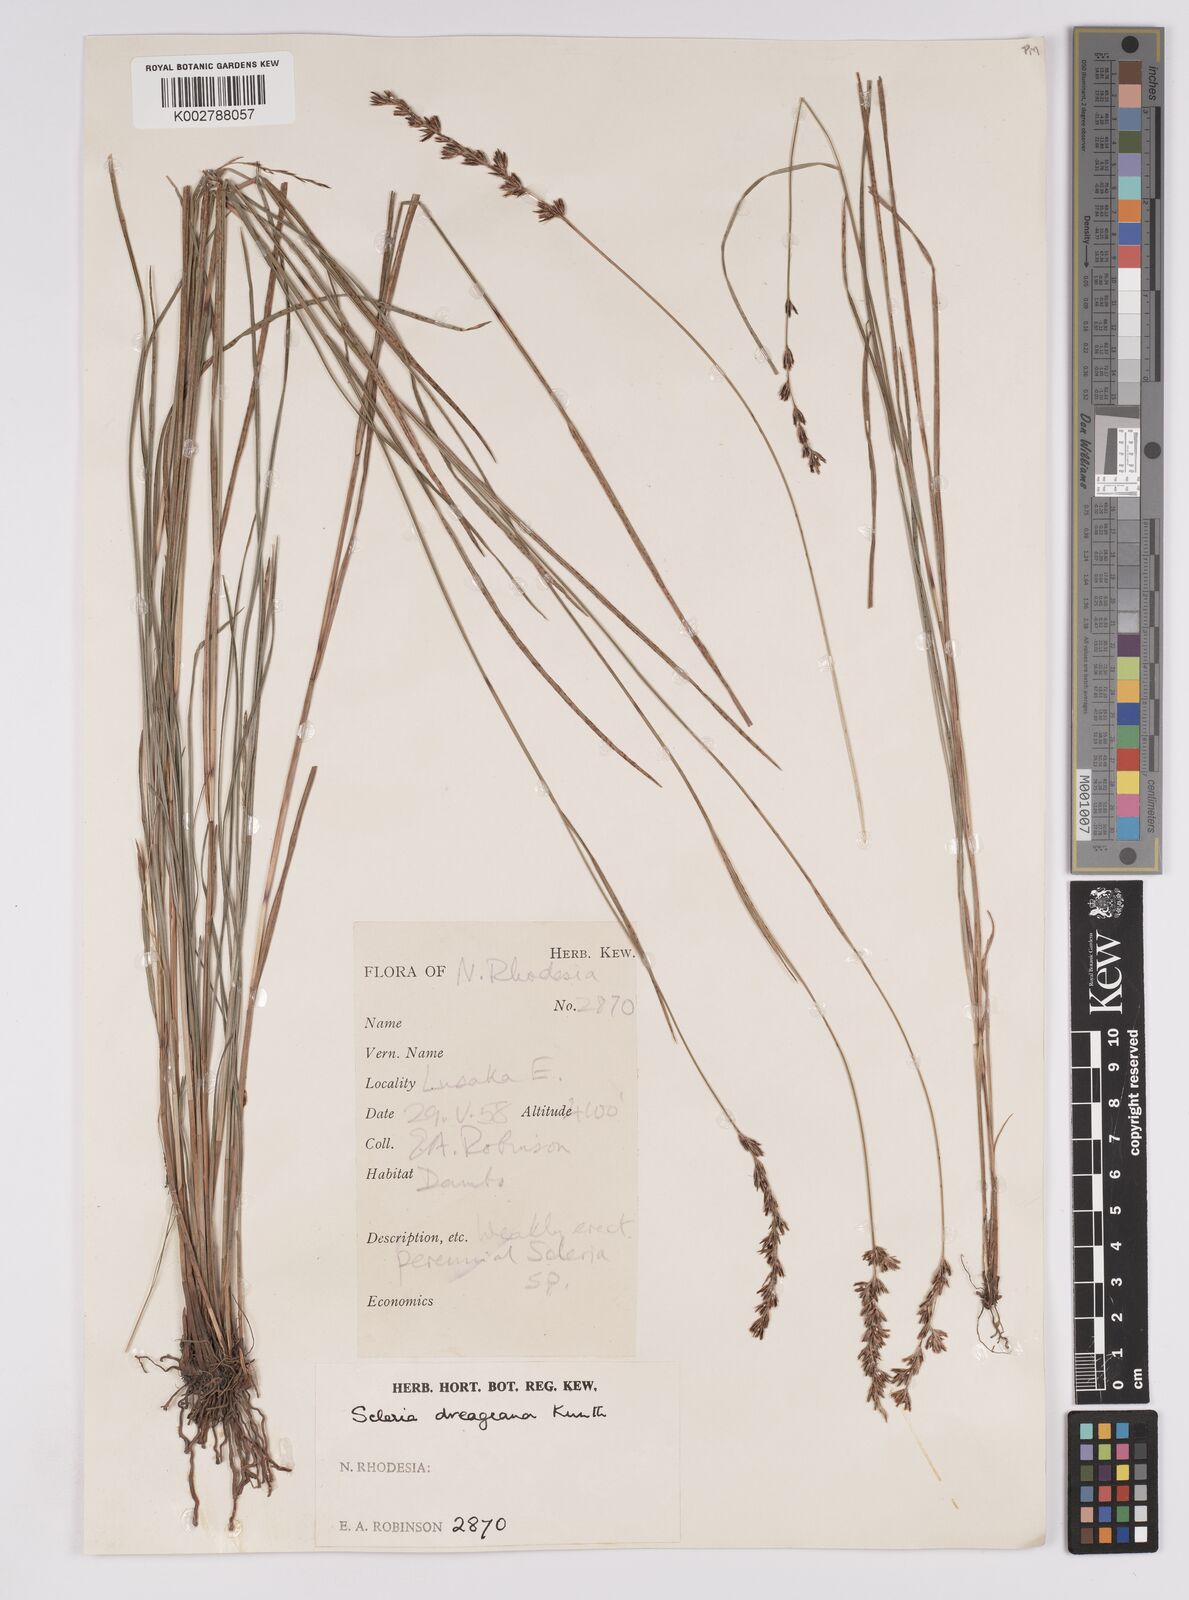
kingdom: Plantae
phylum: Tracheophyta
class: Liliopsida
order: Poales
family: Cyperaceae
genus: Scleria
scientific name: Scleria dregeana
